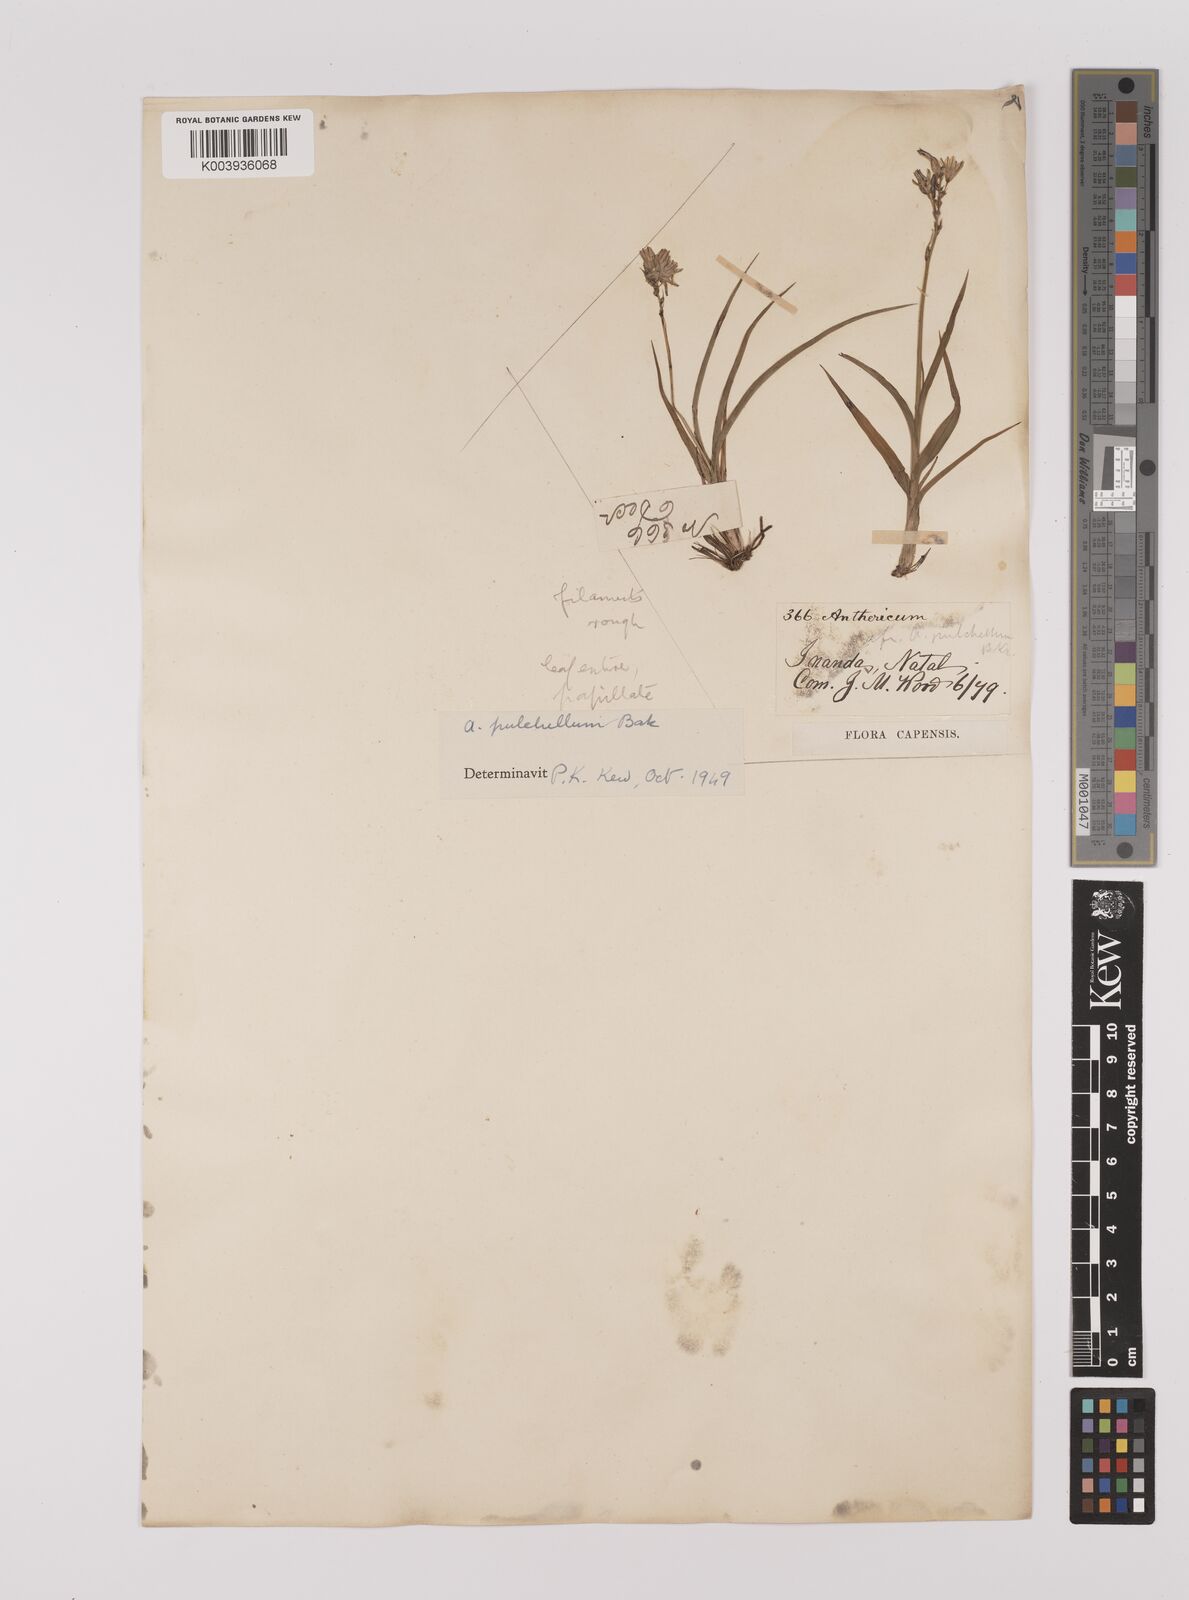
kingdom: Plantae
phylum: Tracheophyta
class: Liliopsida
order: Asparagales
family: Asparagaceae
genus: Chlorophytum
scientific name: Chlorophytum saundersiae
